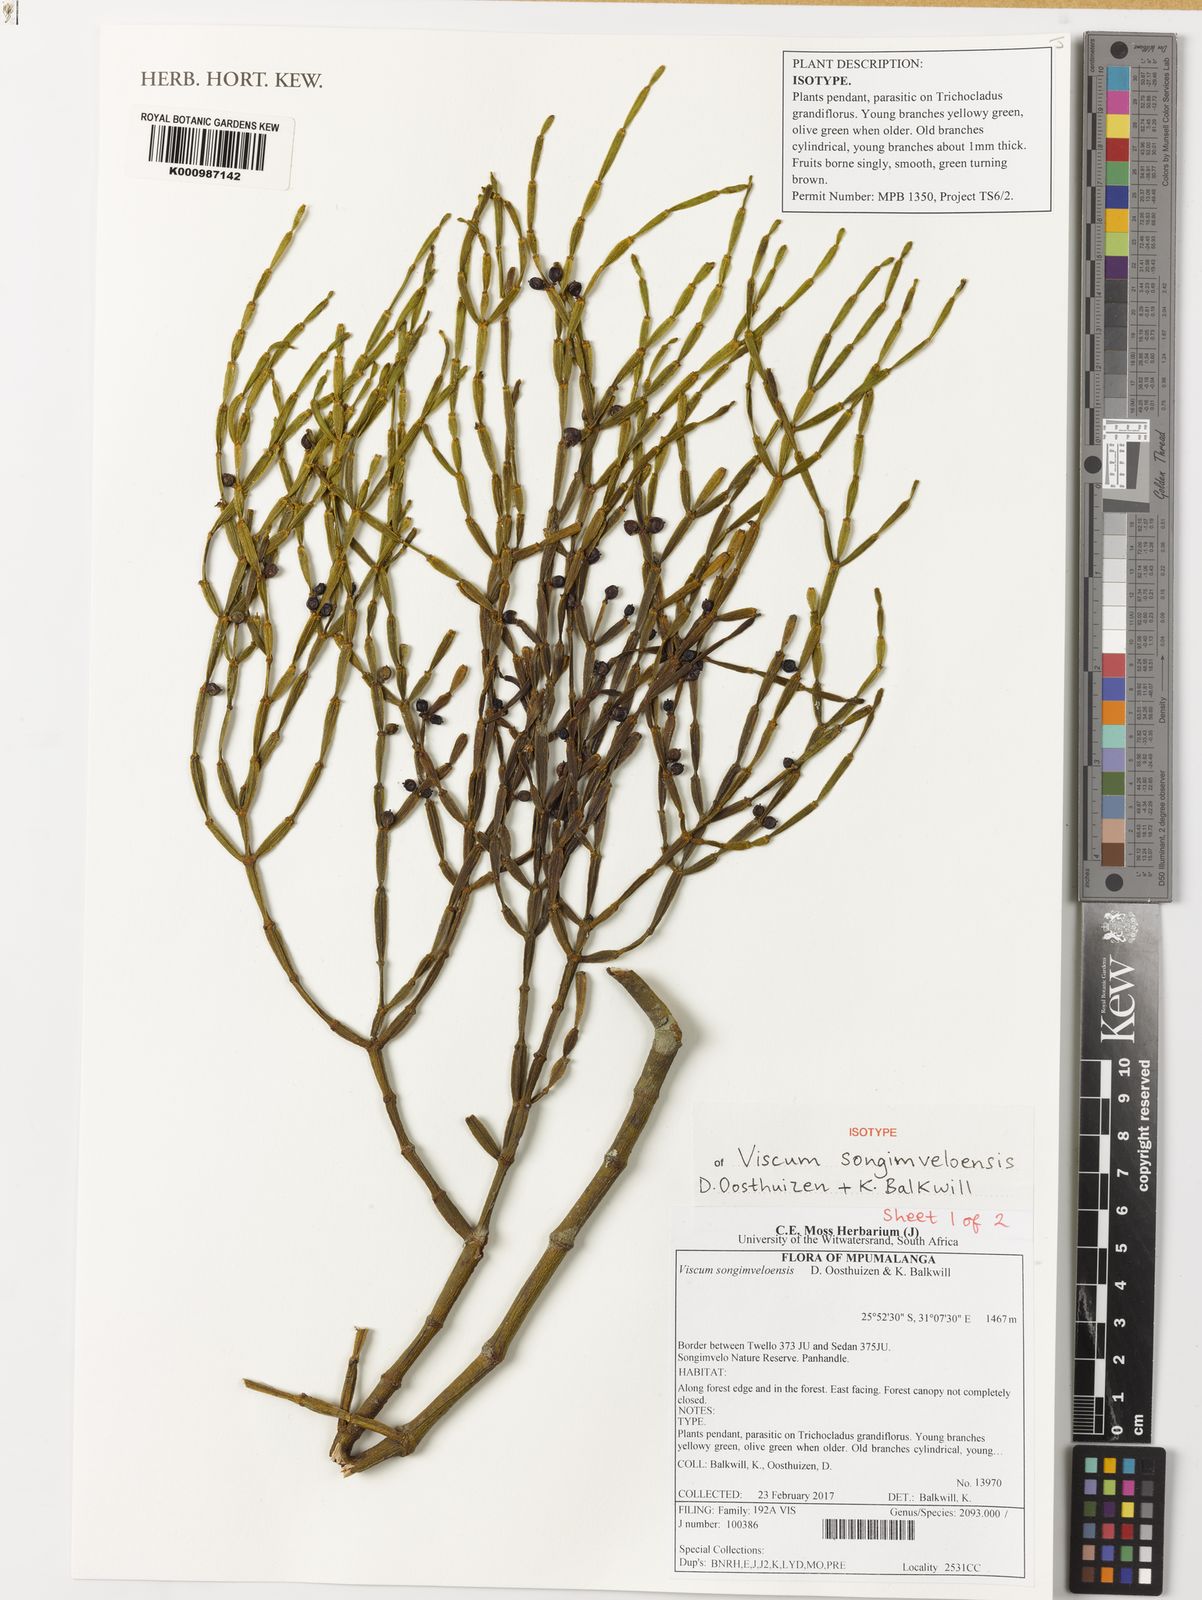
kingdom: Plantae
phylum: Tracheophyta
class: Magnoliopsida
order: Santalales
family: Viscaceae
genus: Viscum
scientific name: Viscum songimveloensis
